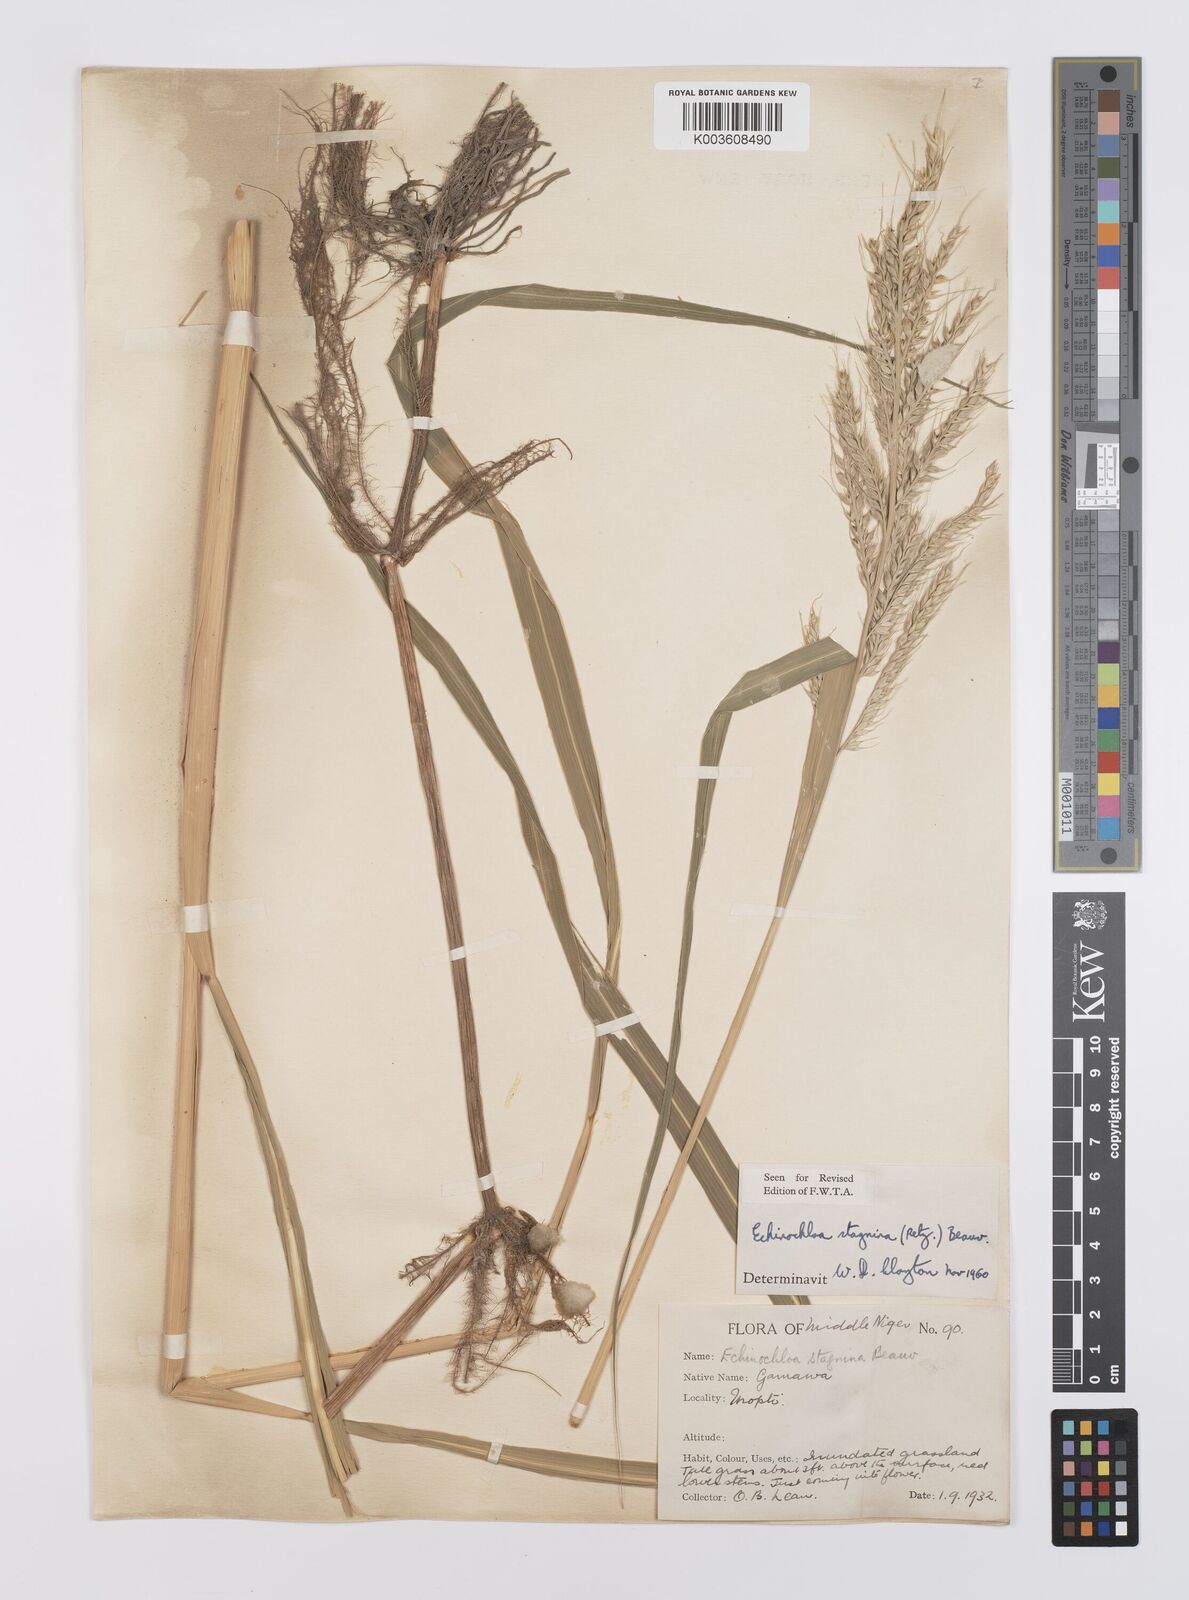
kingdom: Plantae
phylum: Tracheophyta
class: Liliopsida
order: Poales
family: Poaceae
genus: Echinochloa
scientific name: Echinochloa stagnina
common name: Burgu grass
